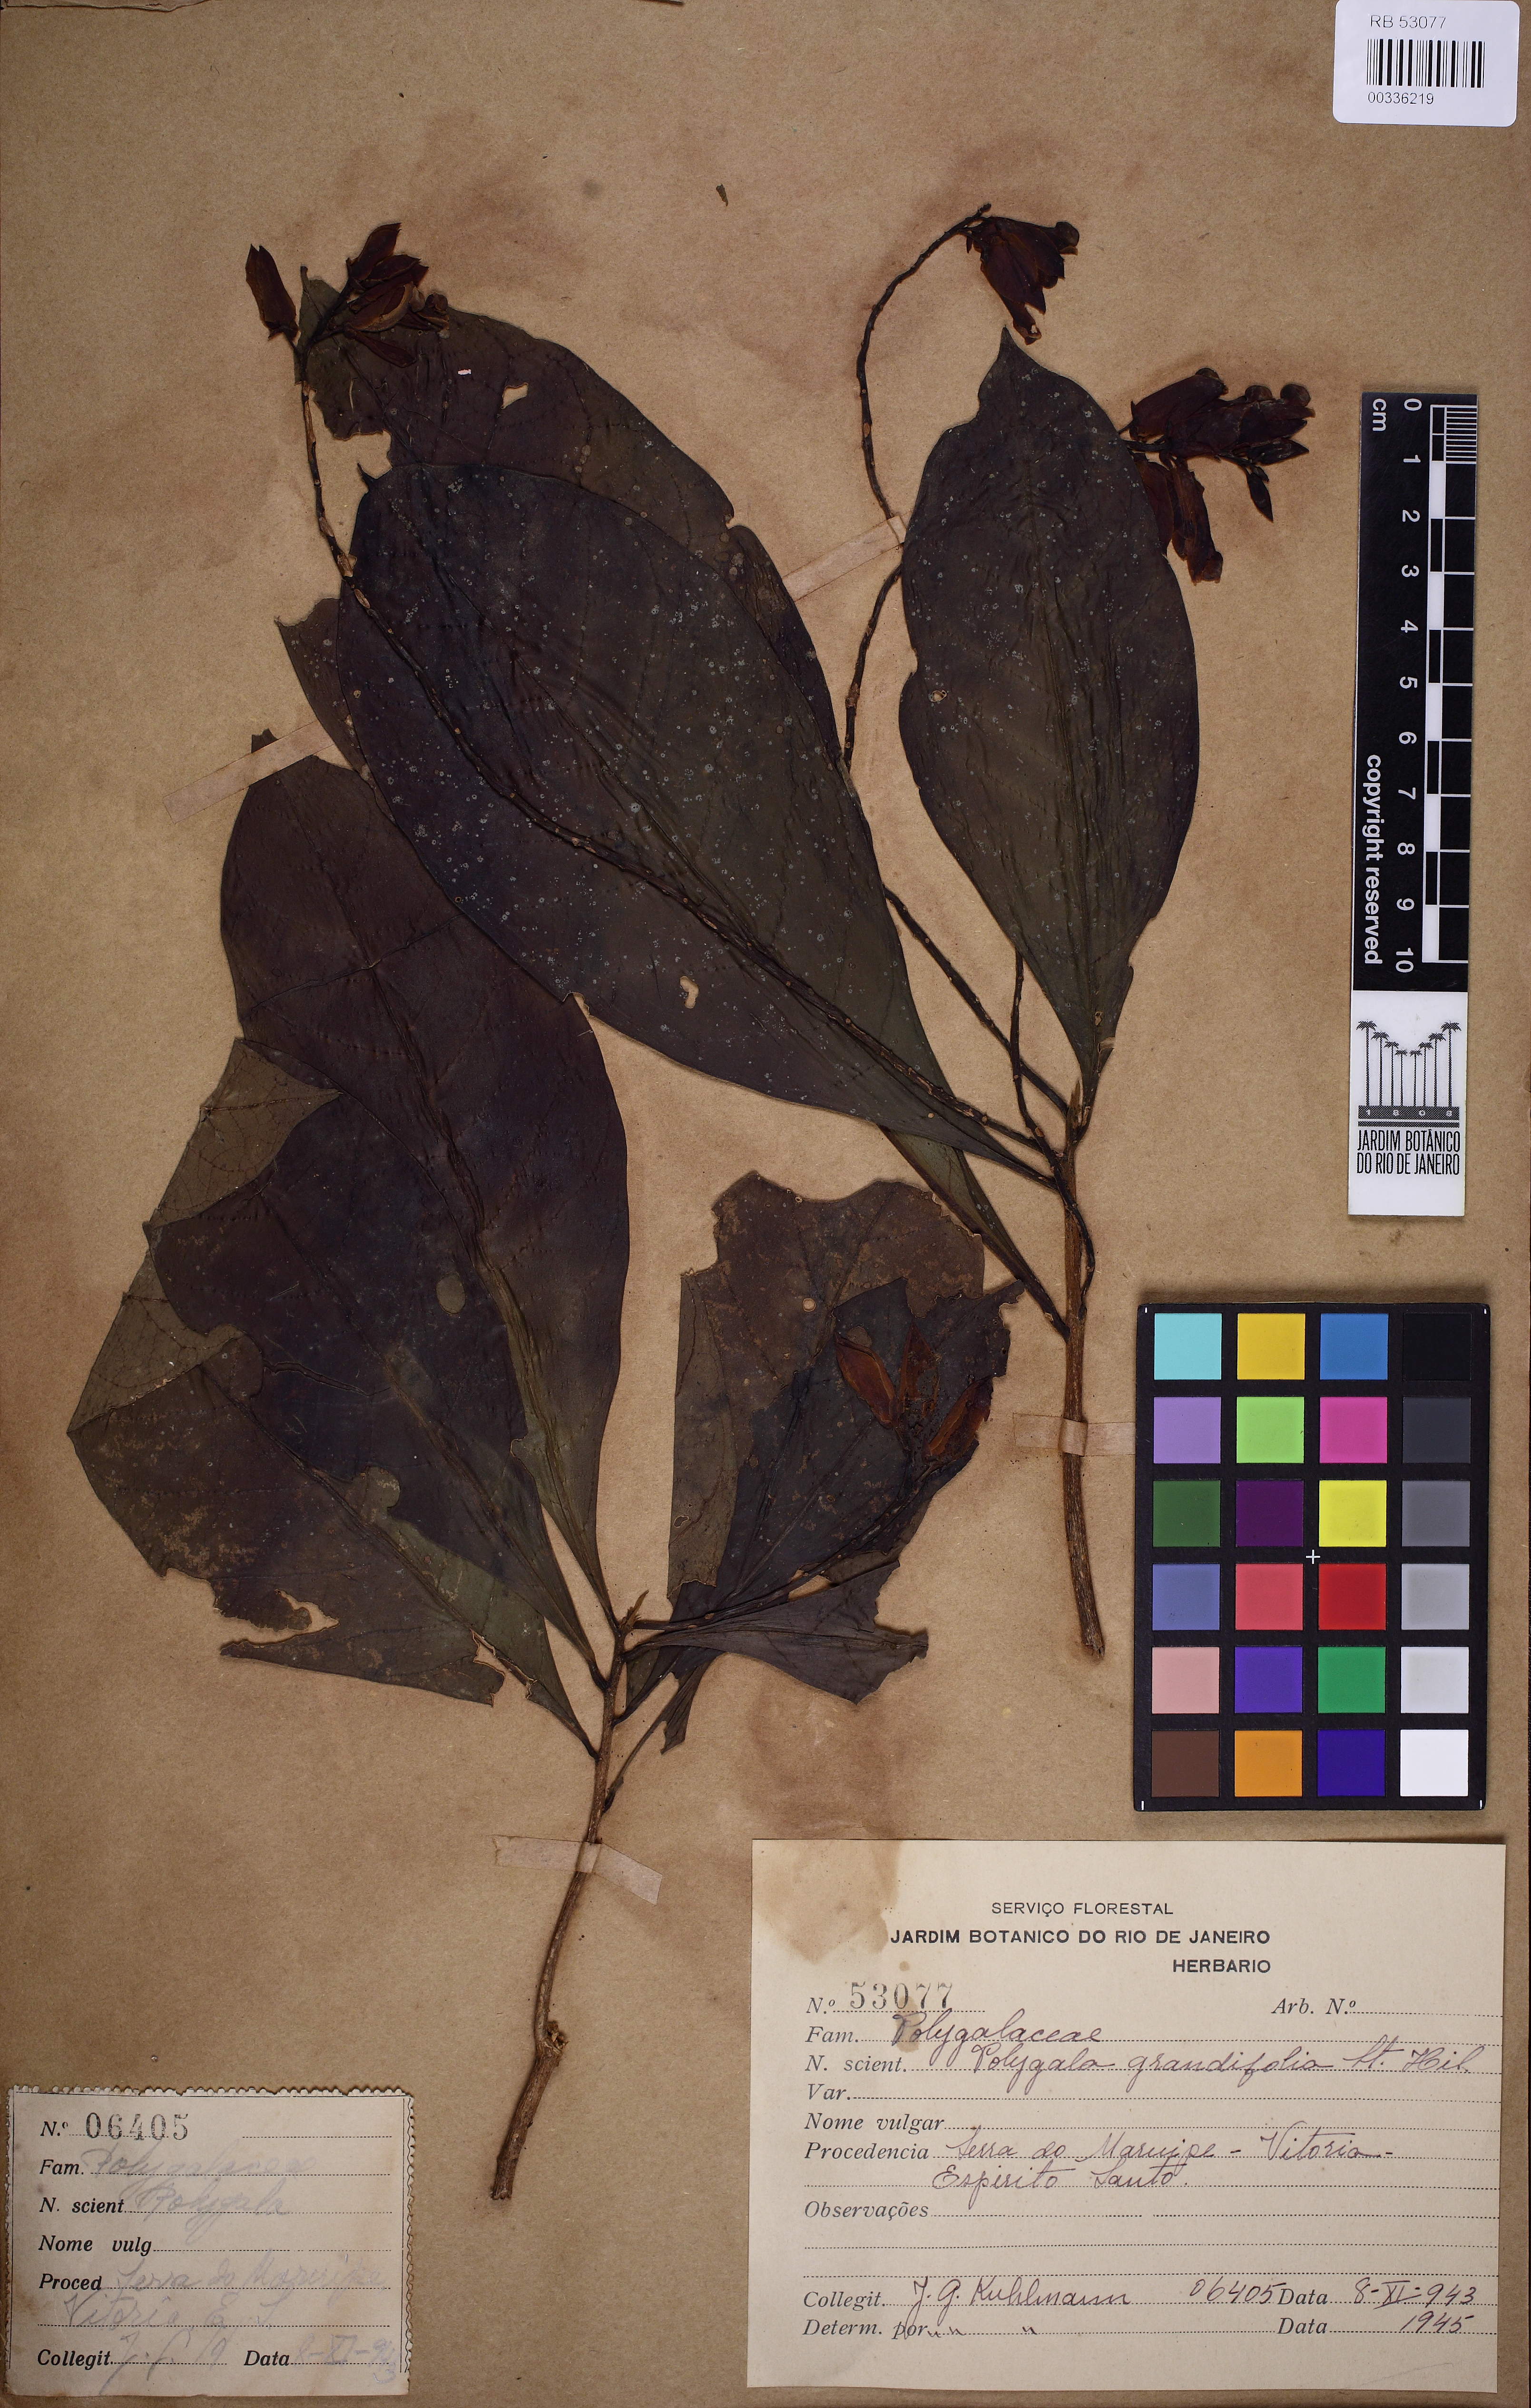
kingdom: Plantae
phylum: Tracheophyta
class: Magnoliopsida
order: Fabales
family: Polygalaceae
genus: Caamembeca
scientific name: Caamembeca grandifolia
